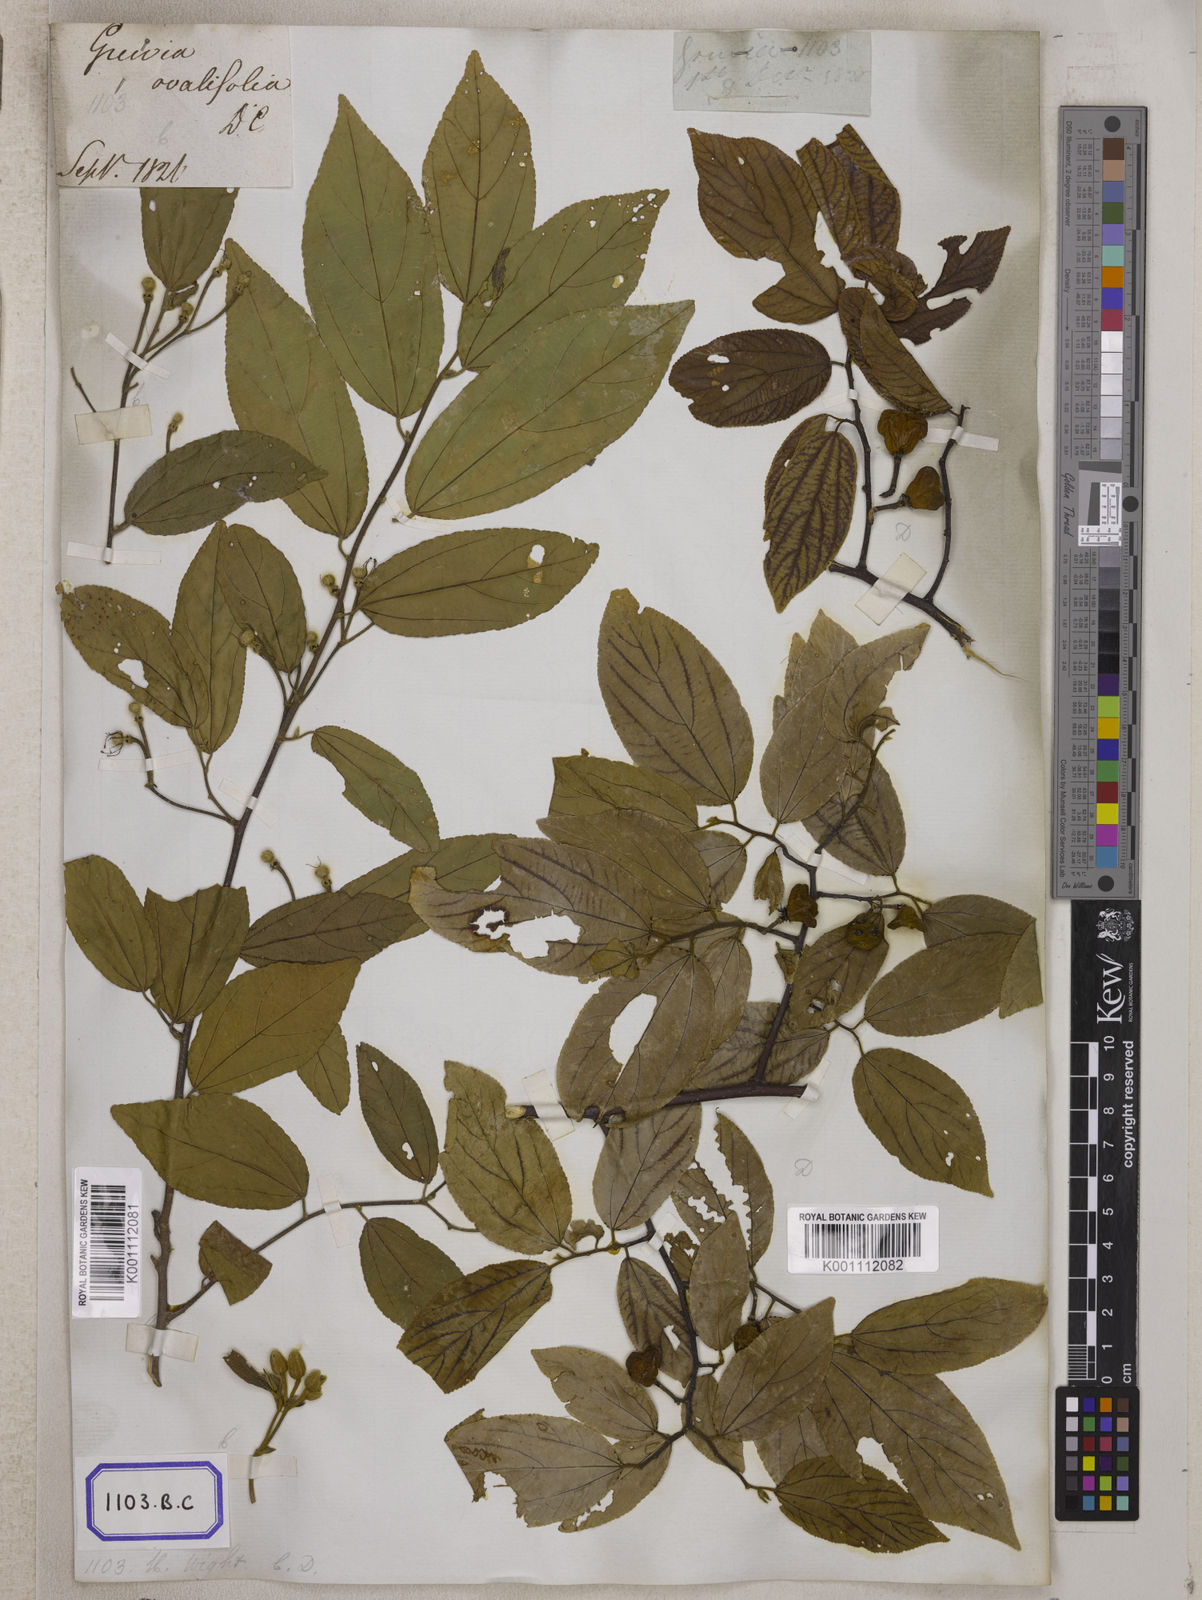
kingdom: Plantae
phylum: Tracheophyta
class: Magnoliopsida
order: Malvales
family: Malvaceae
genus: Grewia
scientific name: Grewia
